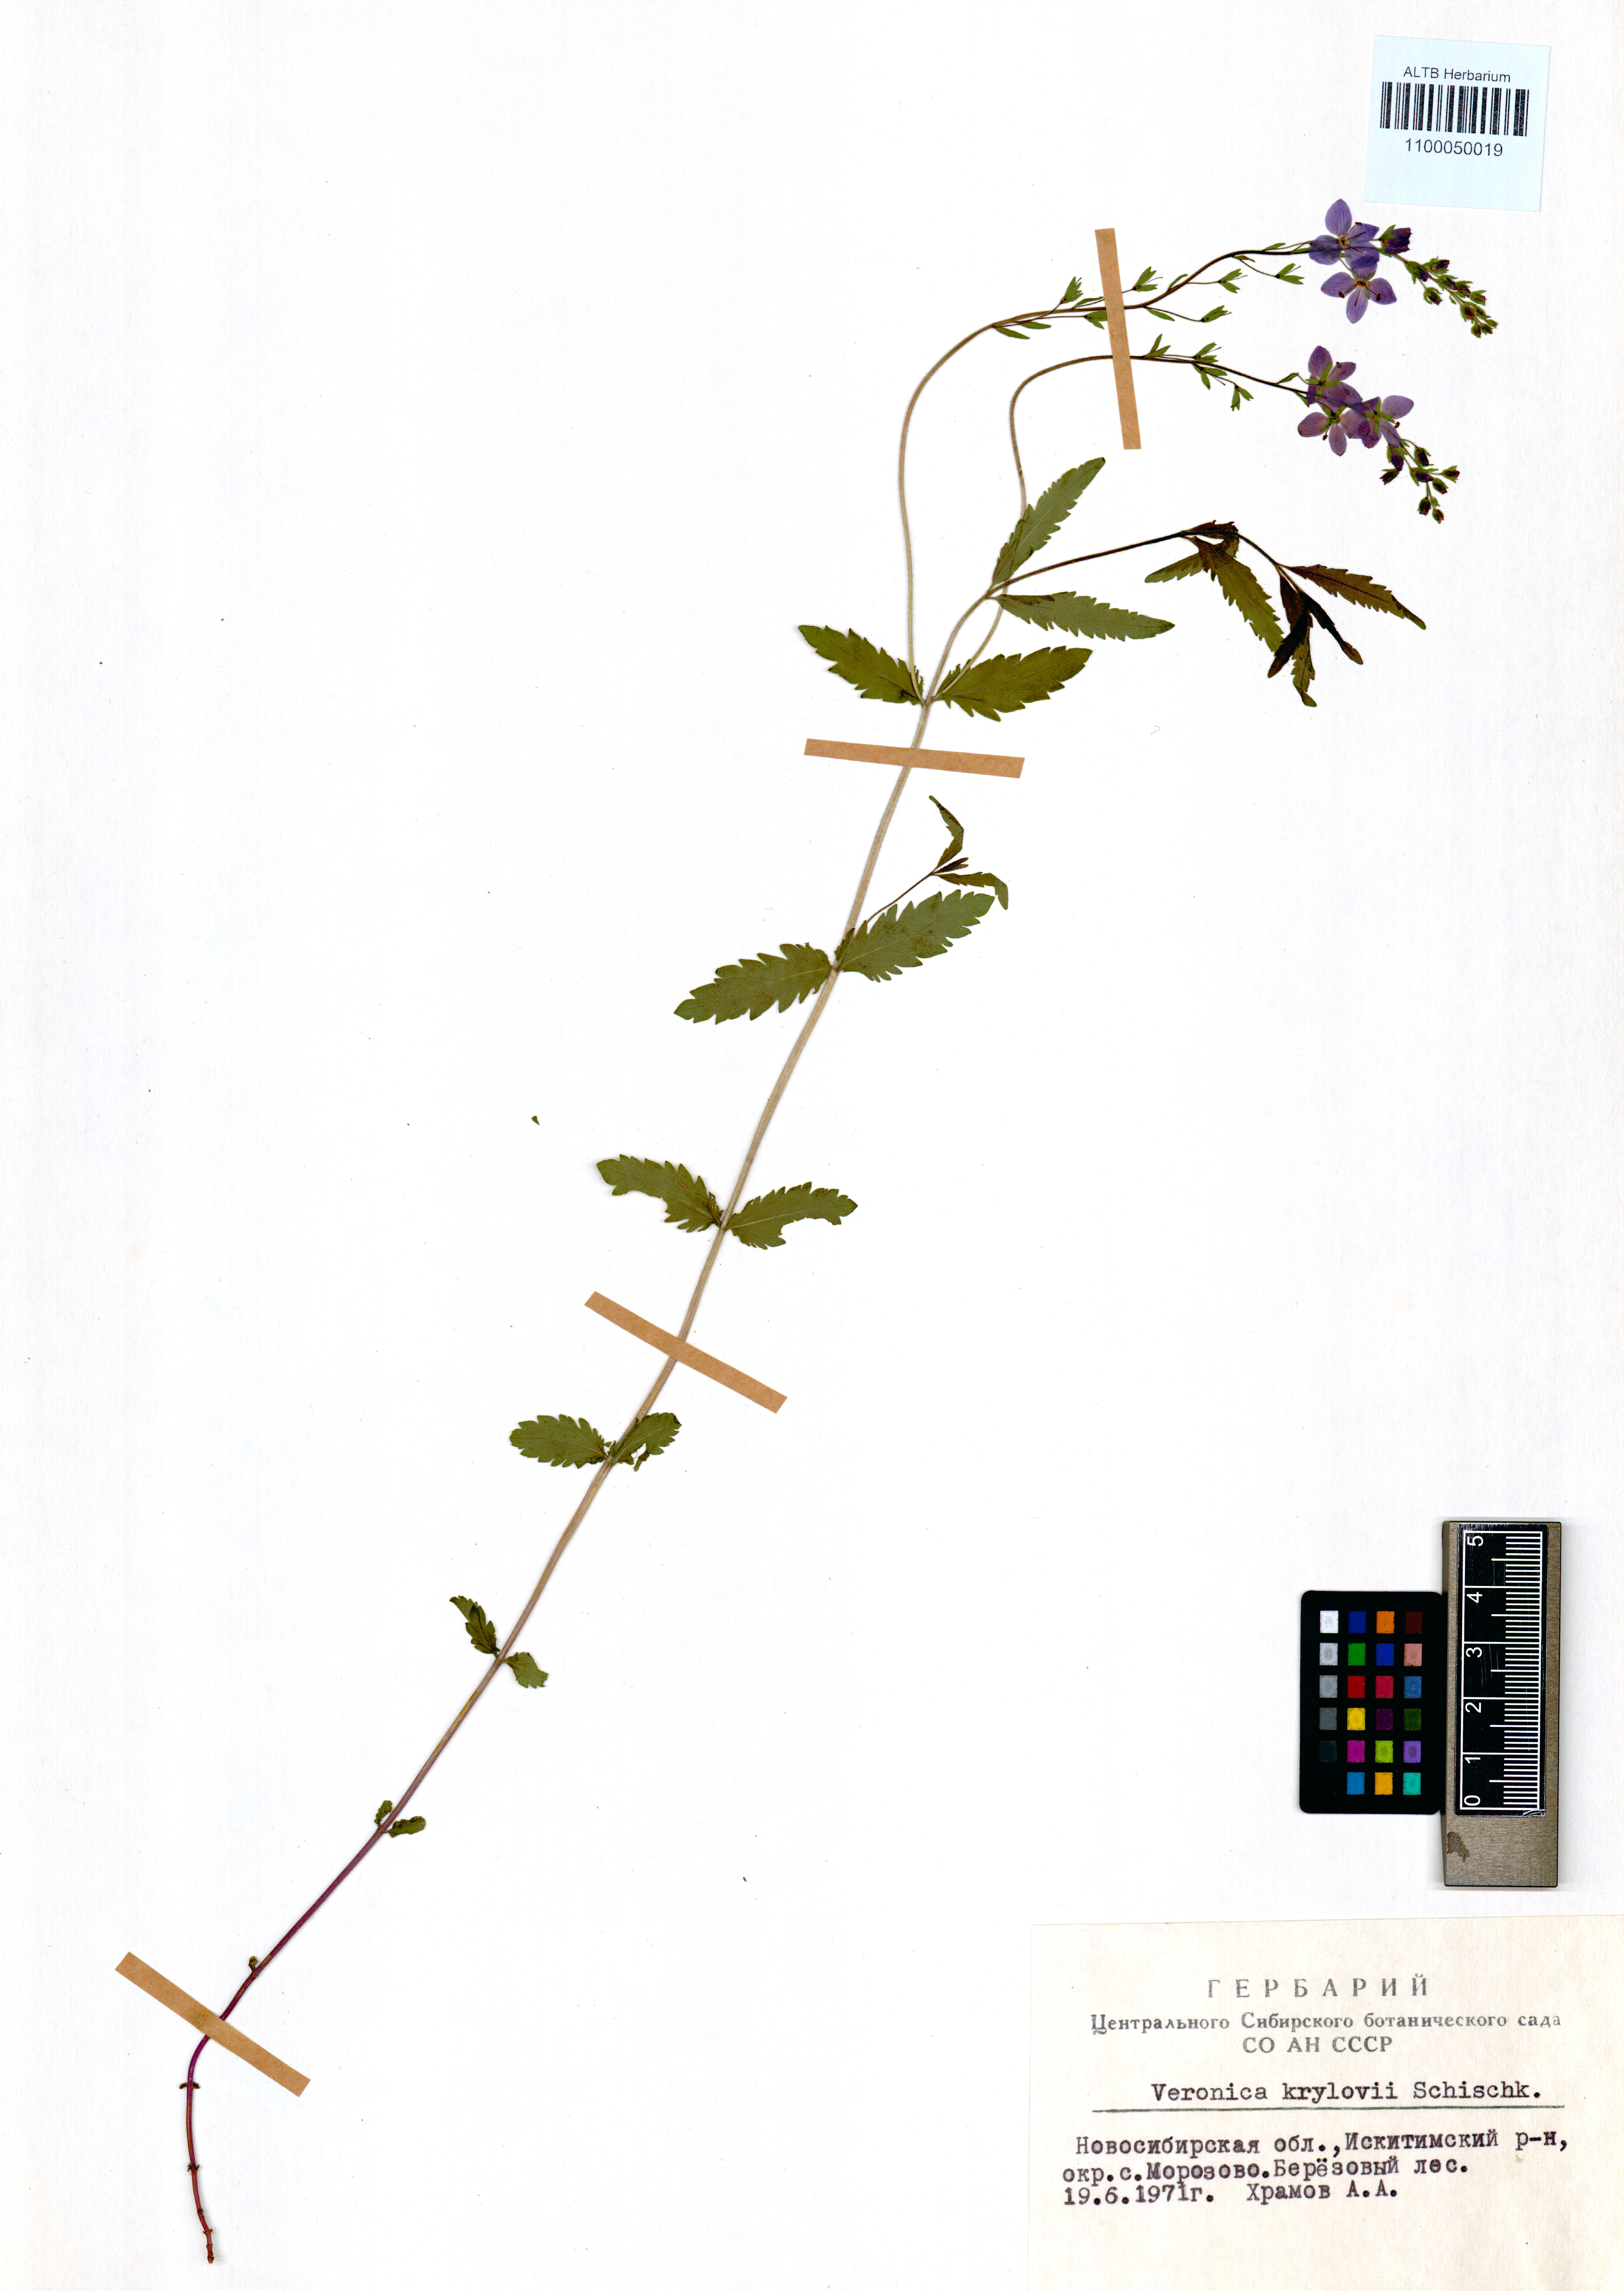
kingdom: Plantae
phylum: Tracheophyta
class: Magnoliopsida
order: Lamiales
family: Plantaginaceae
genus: Veronica
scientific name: Veronica krylovii
